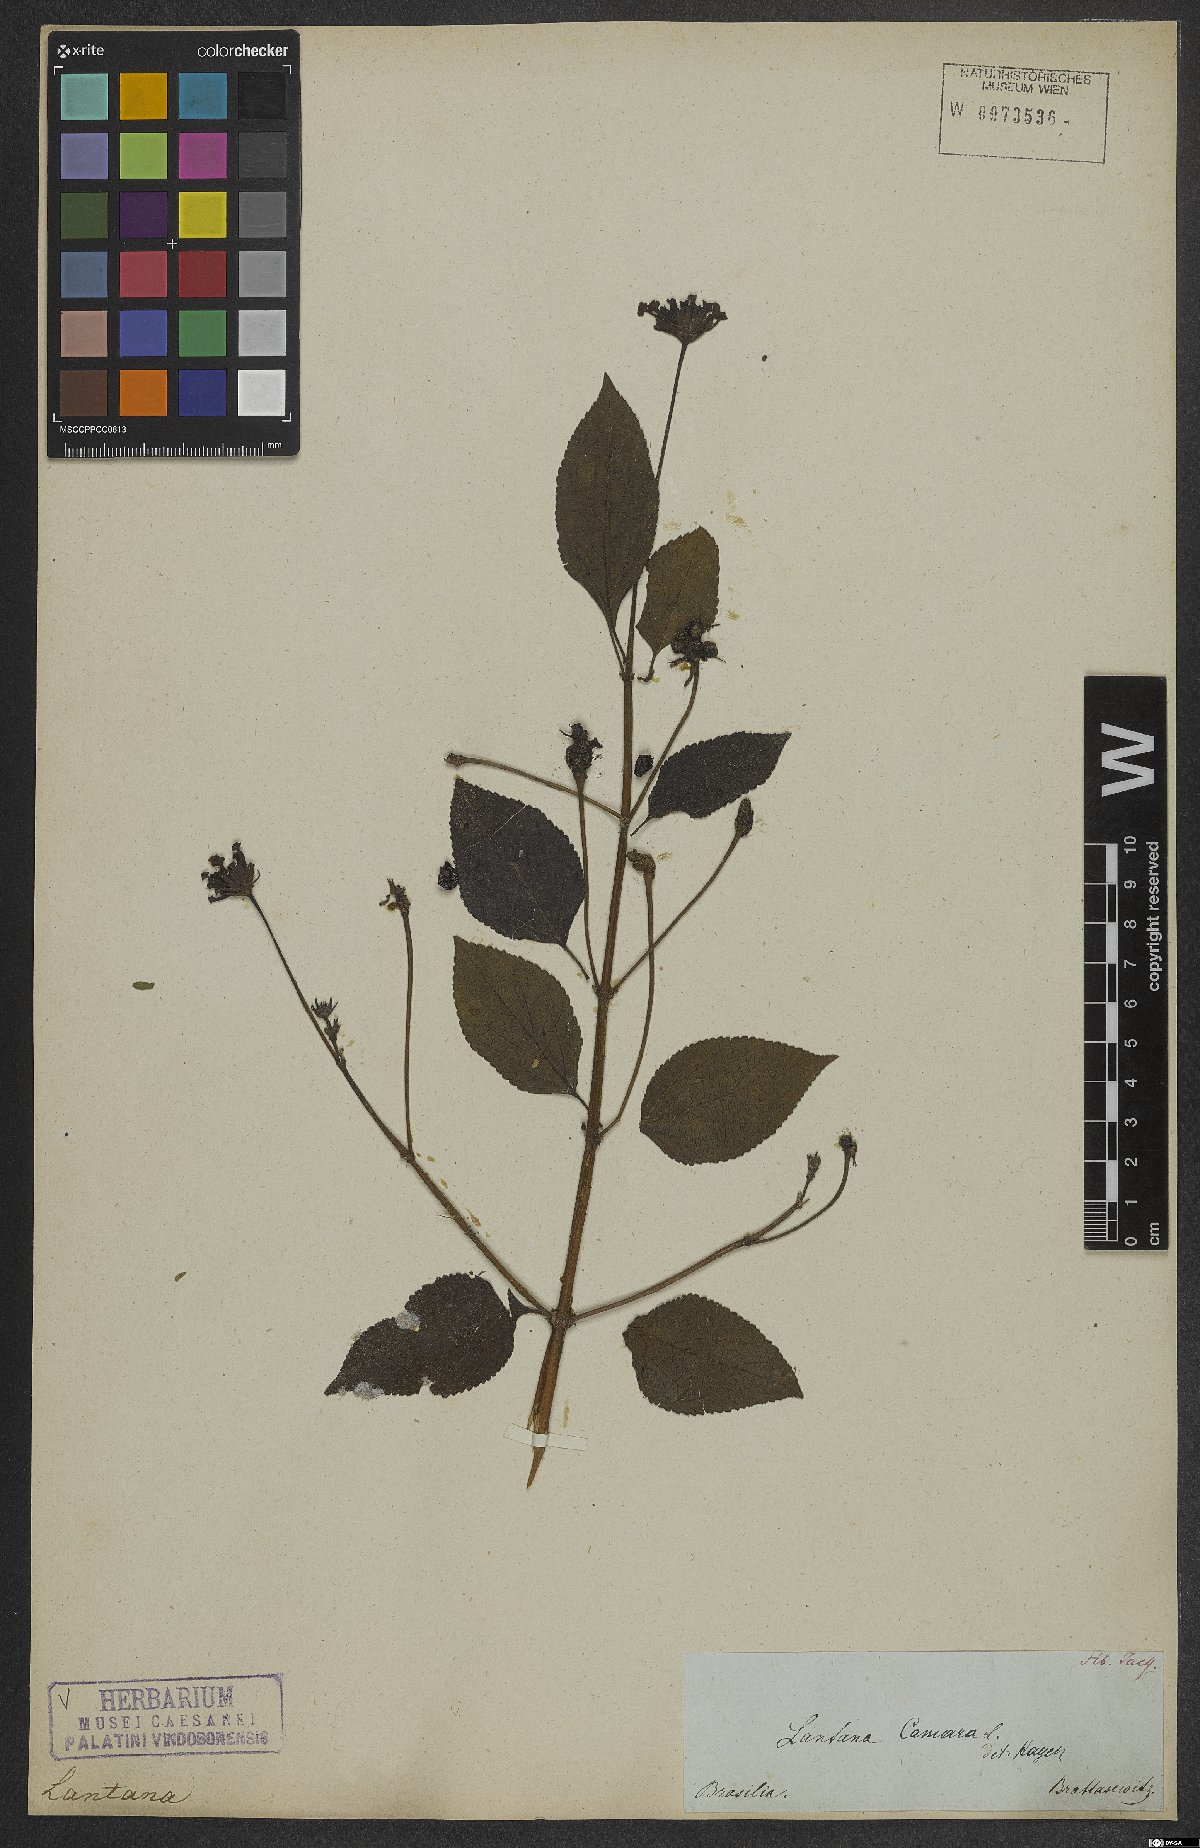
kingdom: Plantae
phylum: Tracheophyta
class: Magnoliopsida
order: Lamiales
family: Verbenaceae
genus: Lantana
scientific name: Lantana camara
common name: Lantana
